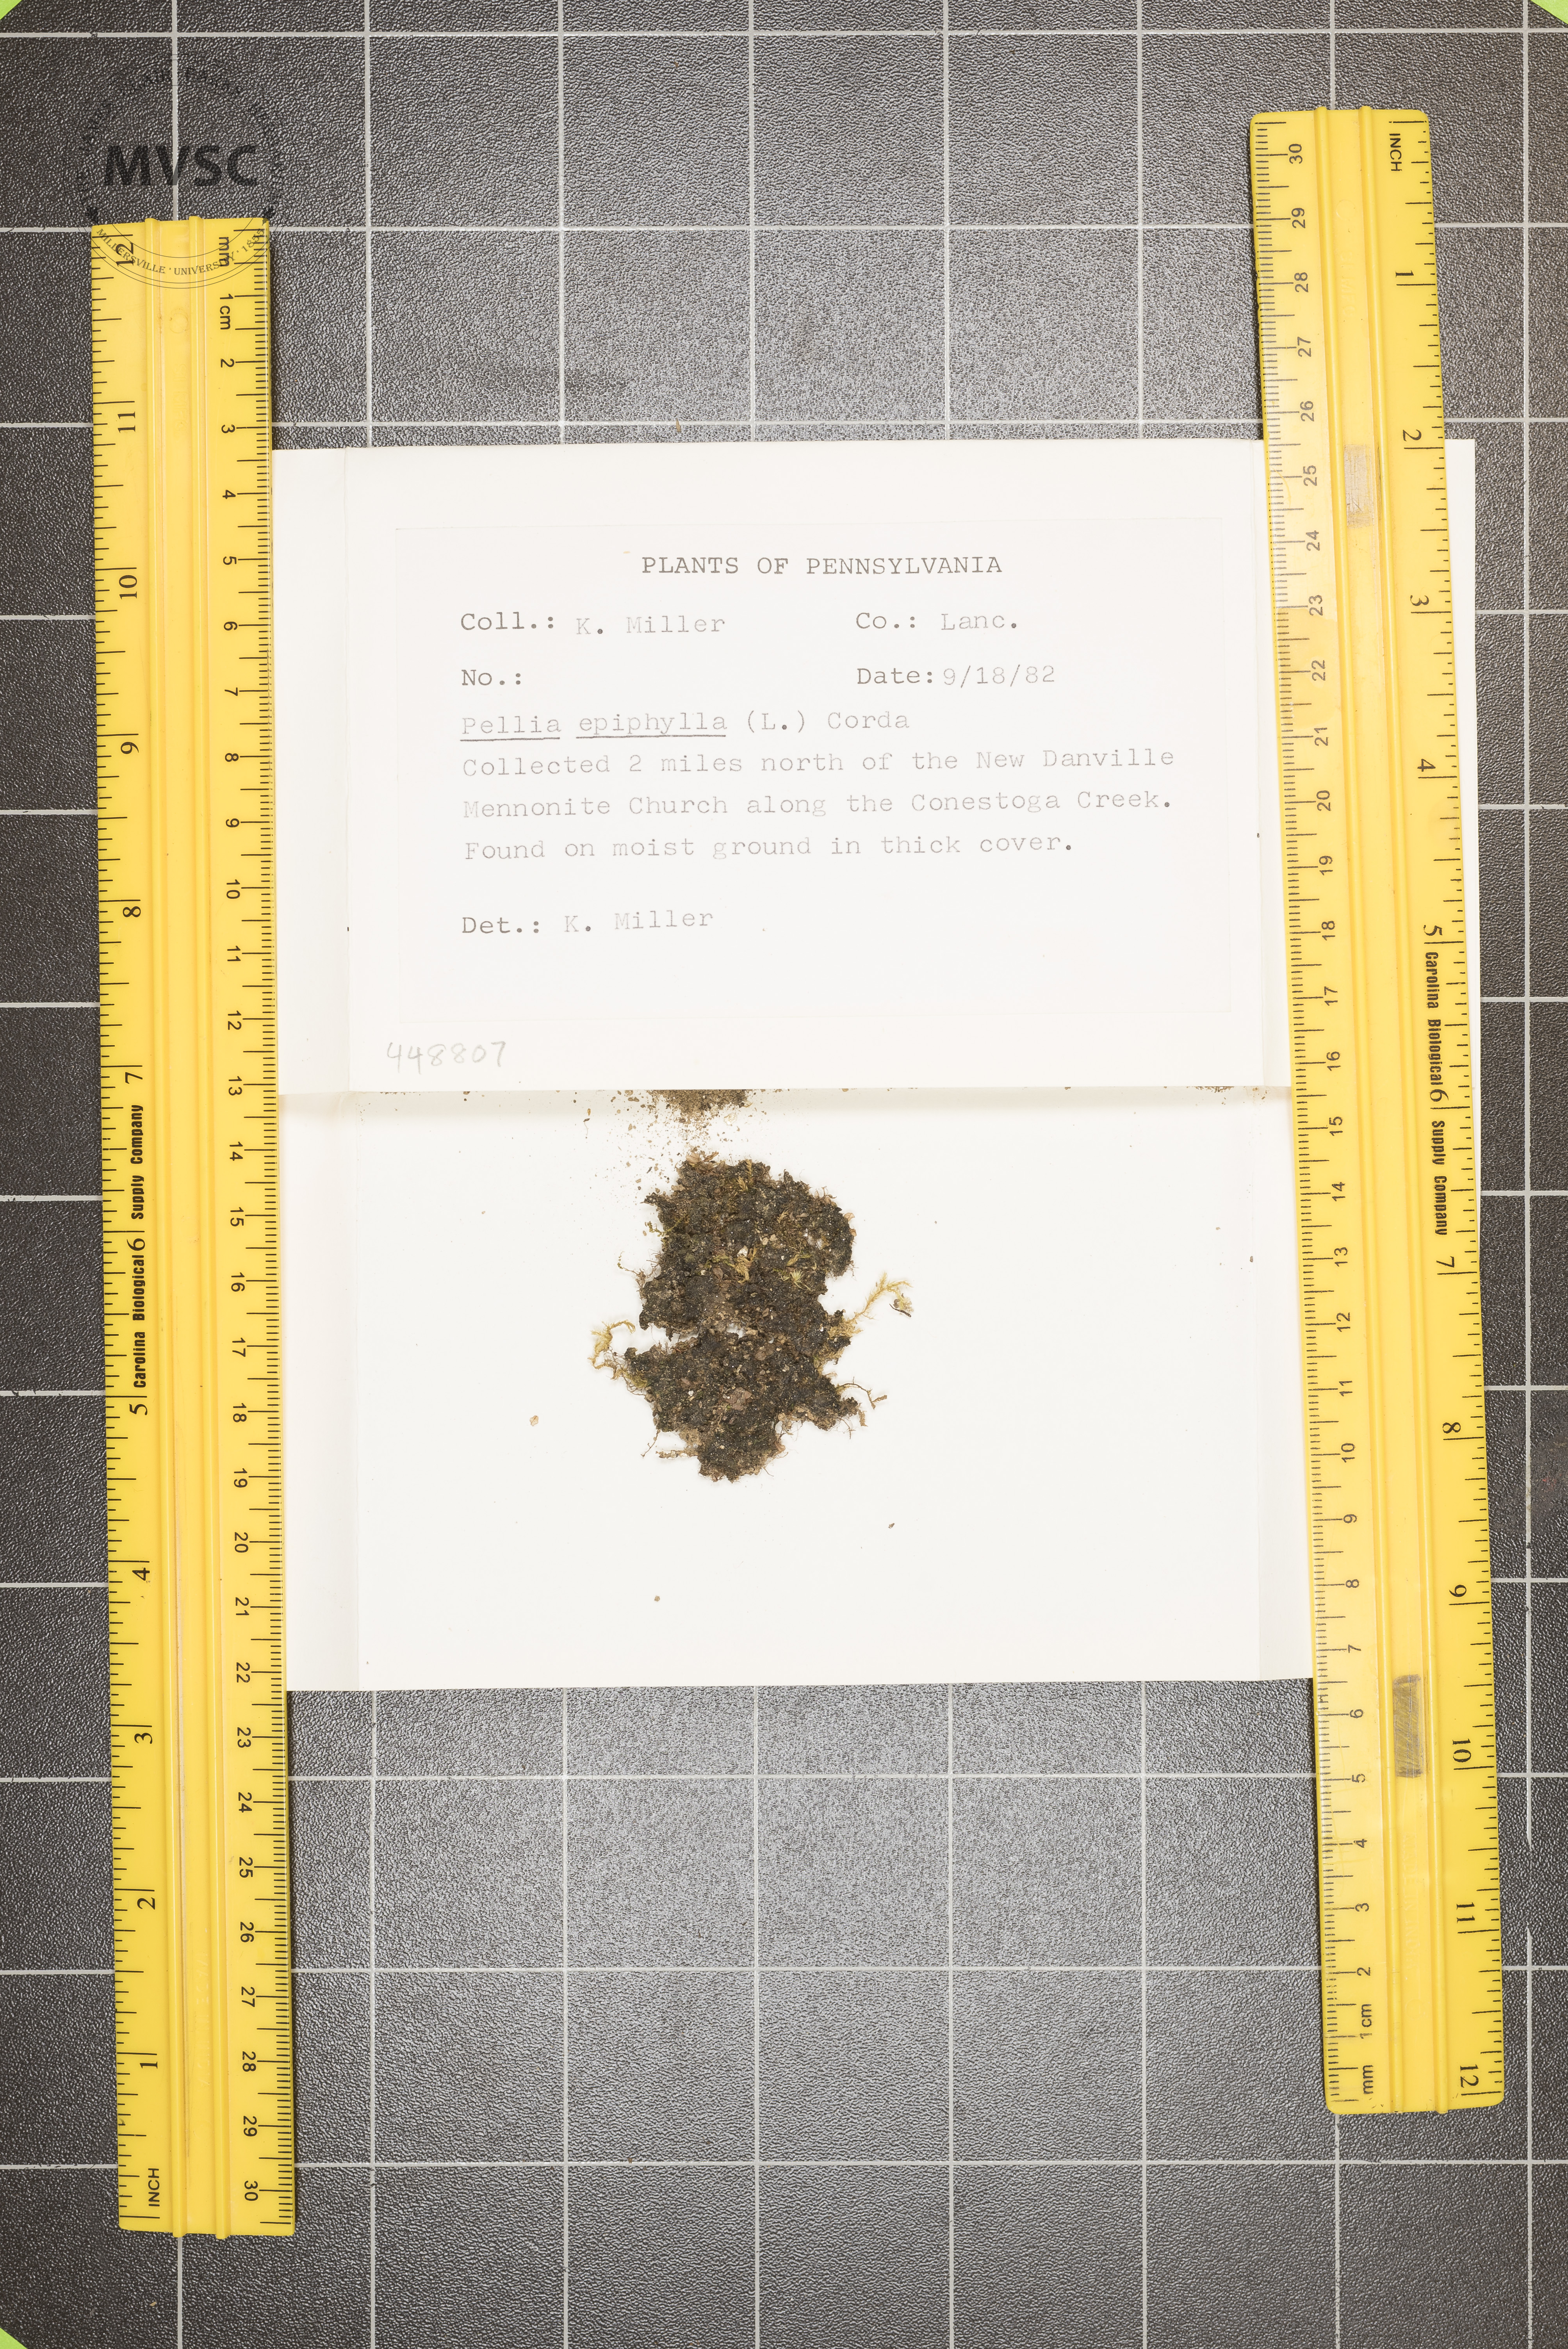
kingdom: Plantae
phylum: Marchantiophyta
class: Jungermanniopsida
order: Pelliales
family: Pelliaceae
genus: Pellia
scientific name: Pellia epiphylla
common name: Common pellia
